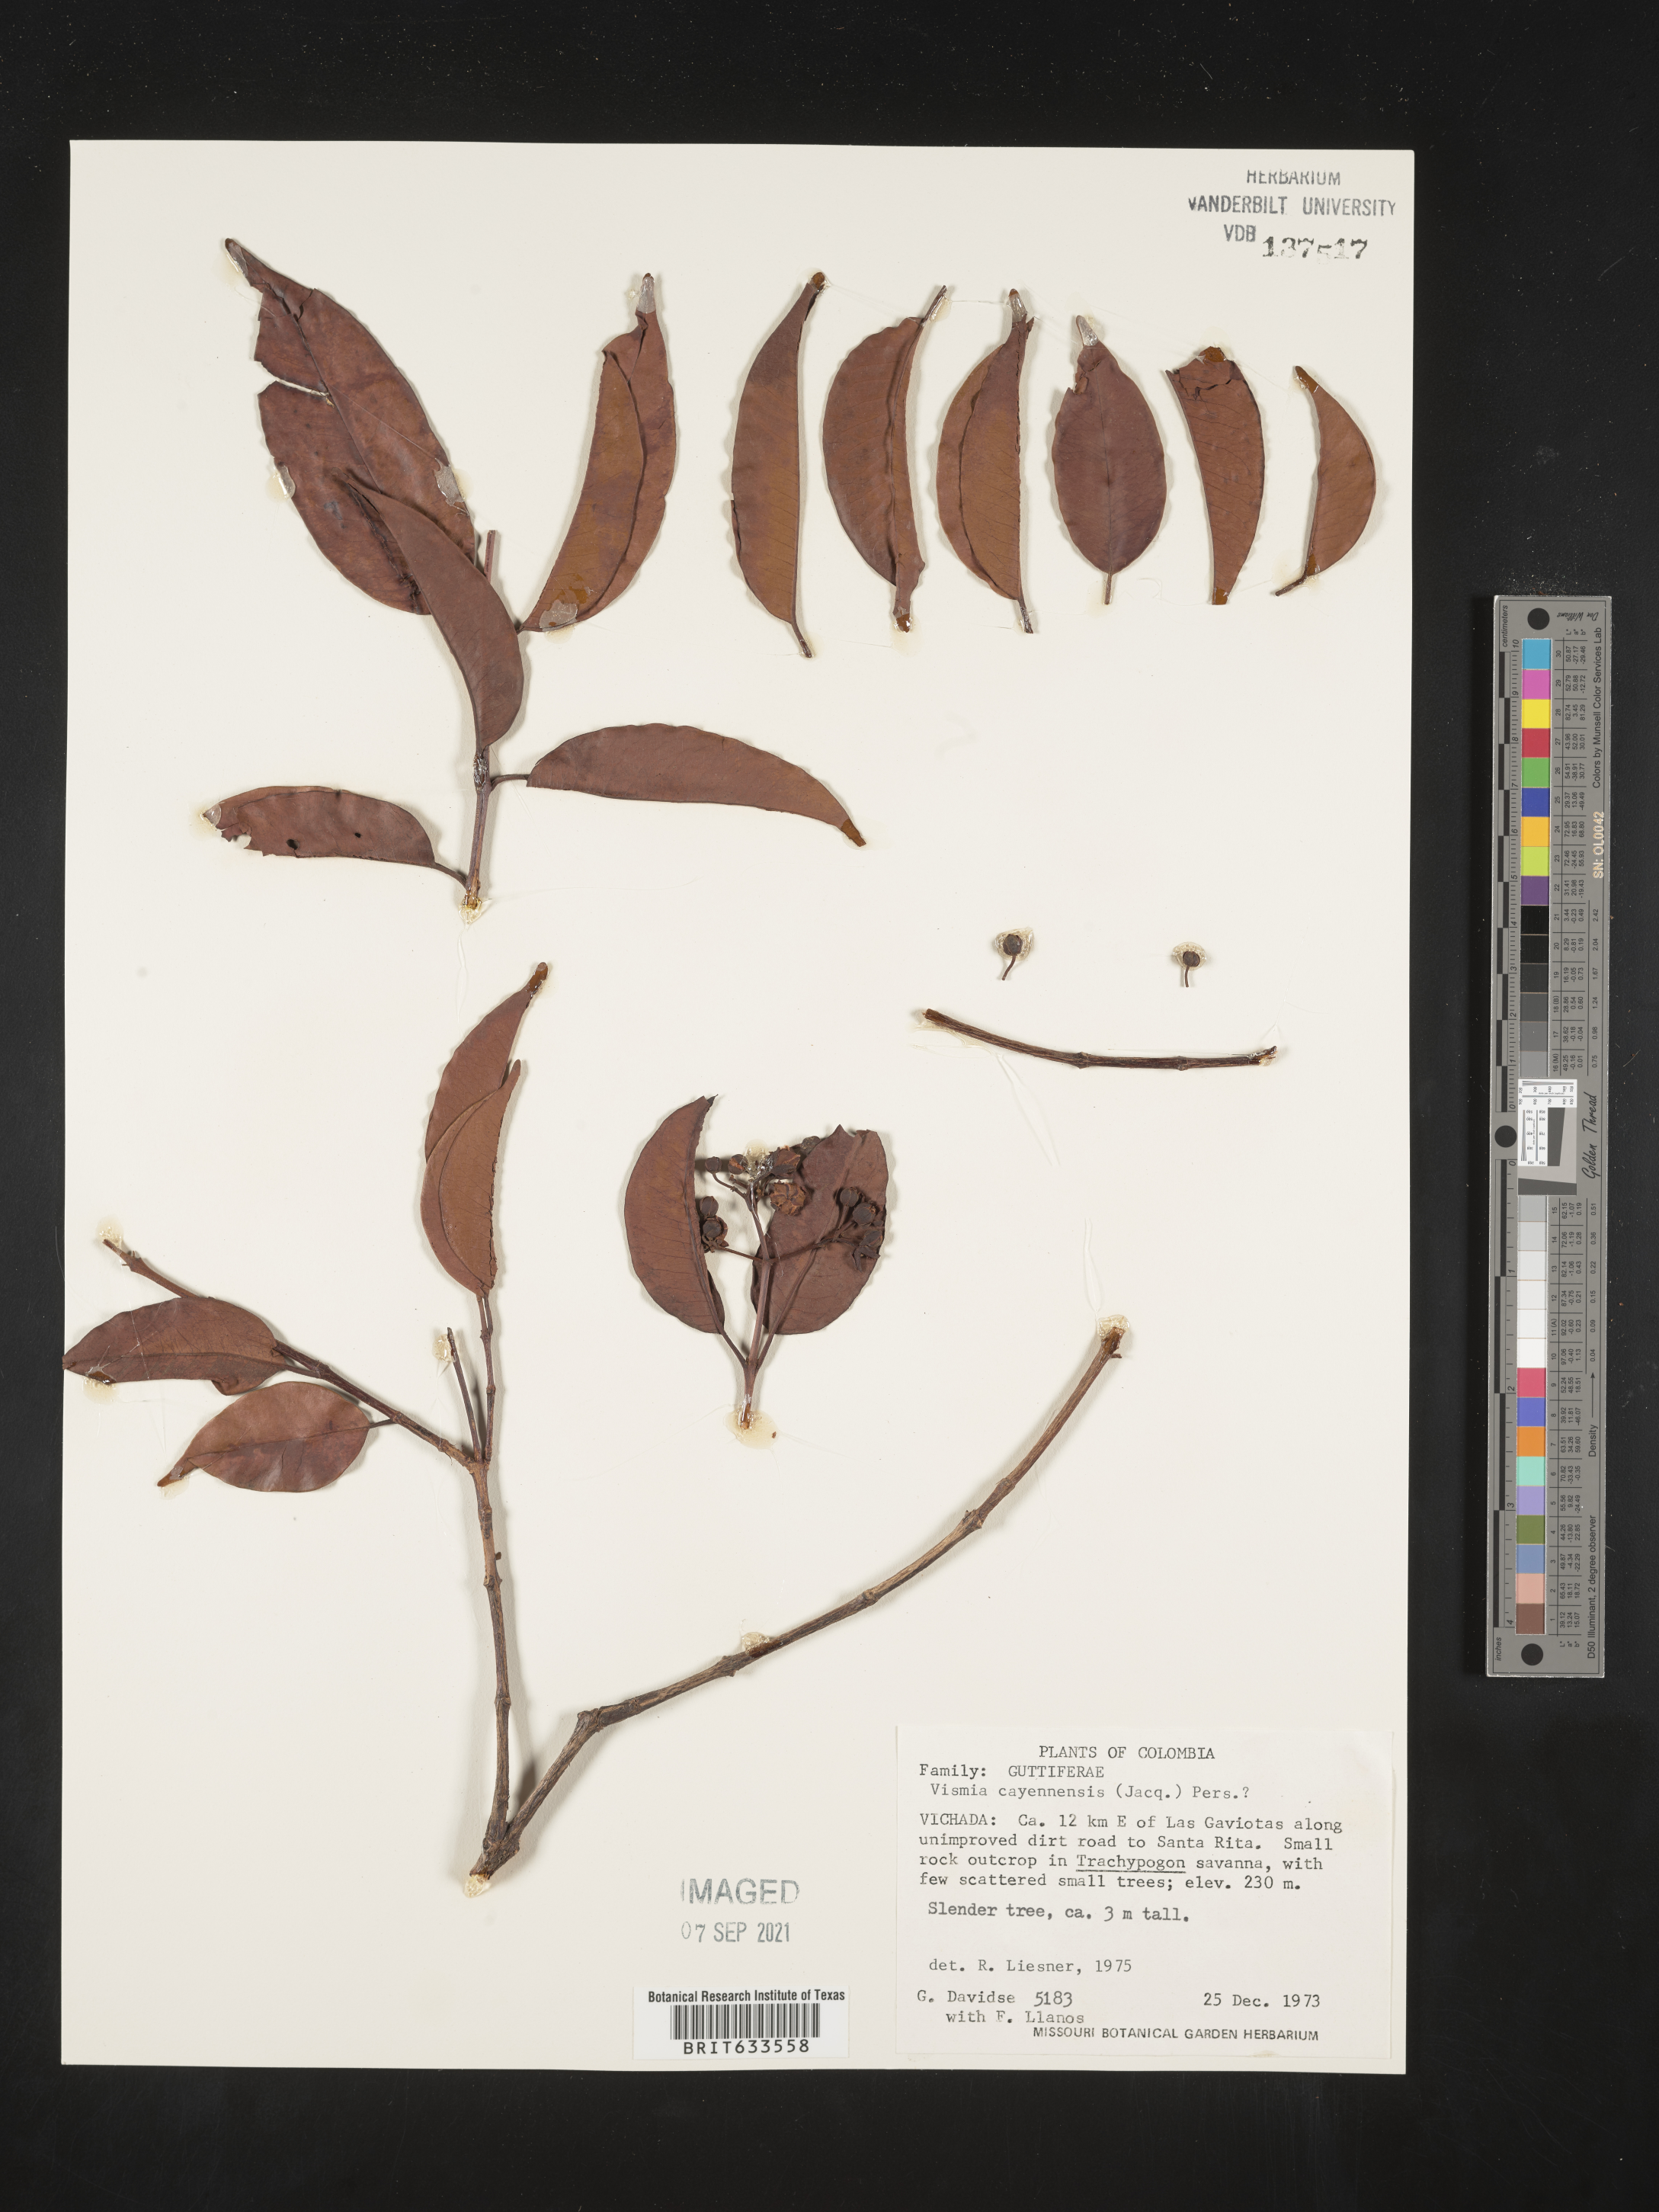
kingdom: Plantae
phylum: Tracheophyta
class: Magnoliopsida
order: Malpighiales
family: Hypericaceae
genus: Vismia
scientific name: Vismia
